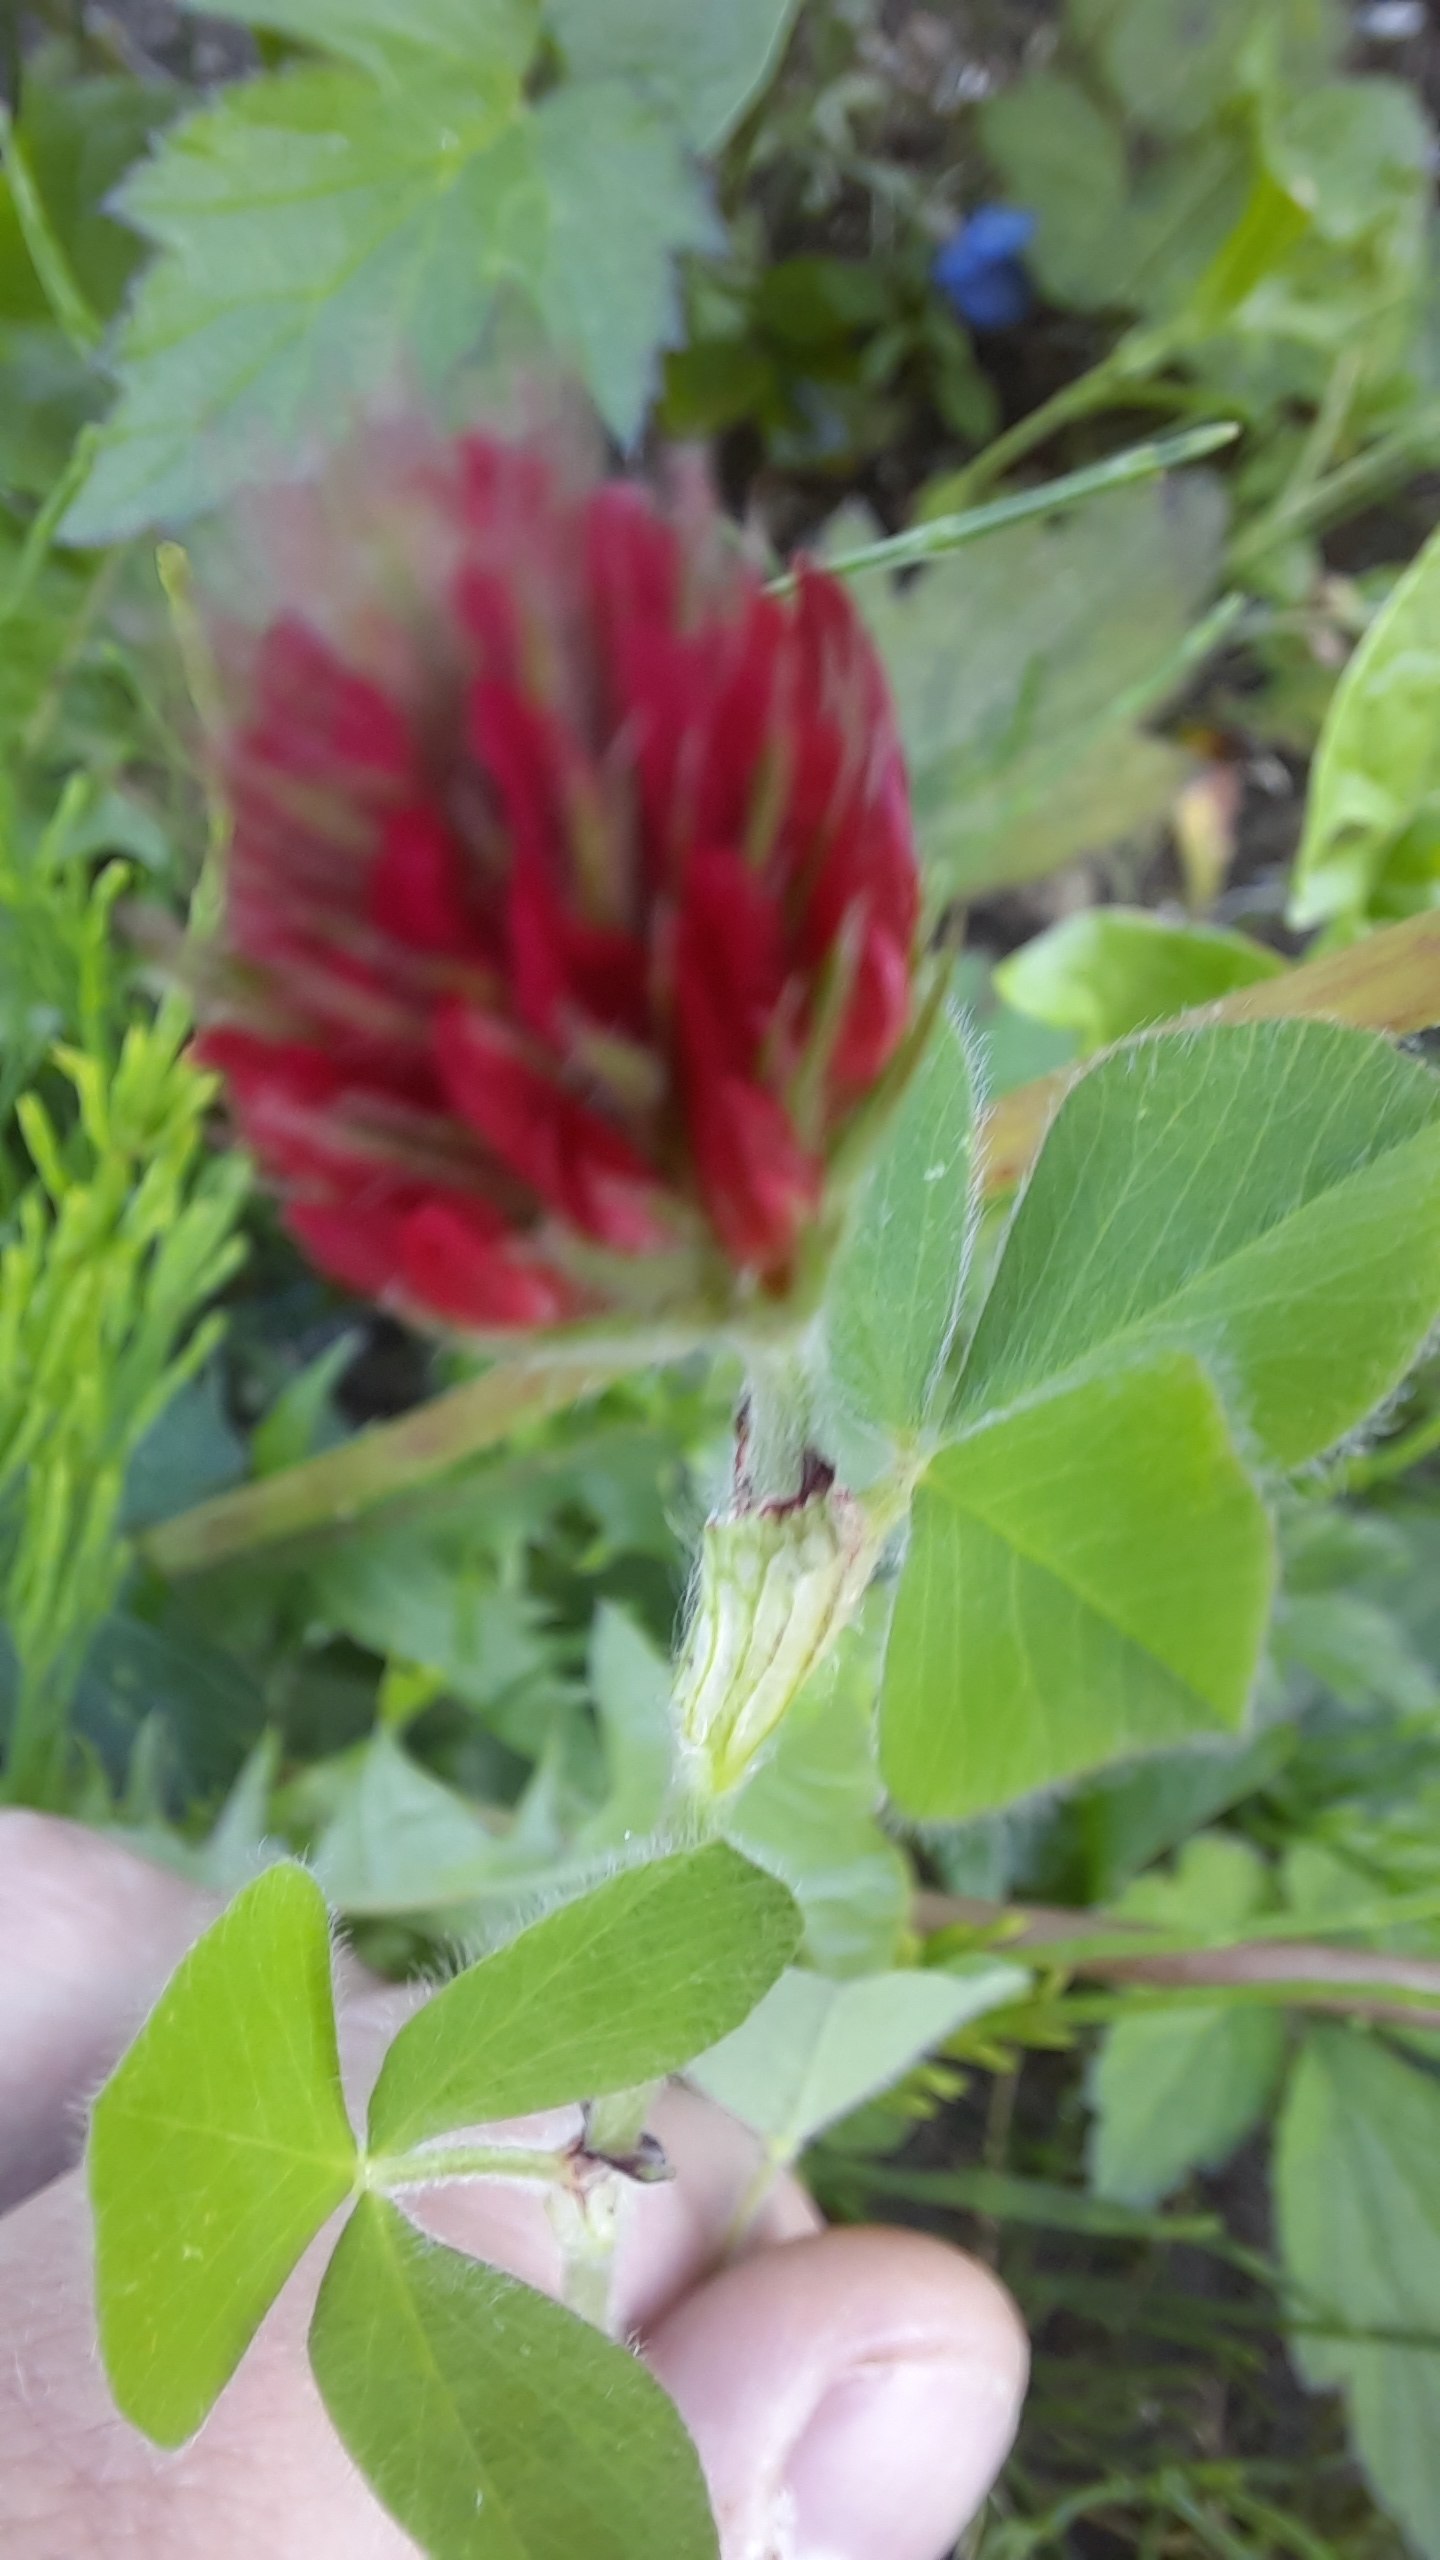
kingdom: Plantae
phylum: Tracheophyta
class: Magnoliopsida
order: Fabales
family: Fabaceae
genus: Trifolium
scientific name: Trifolium incarnatum
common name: Blod-kløver
